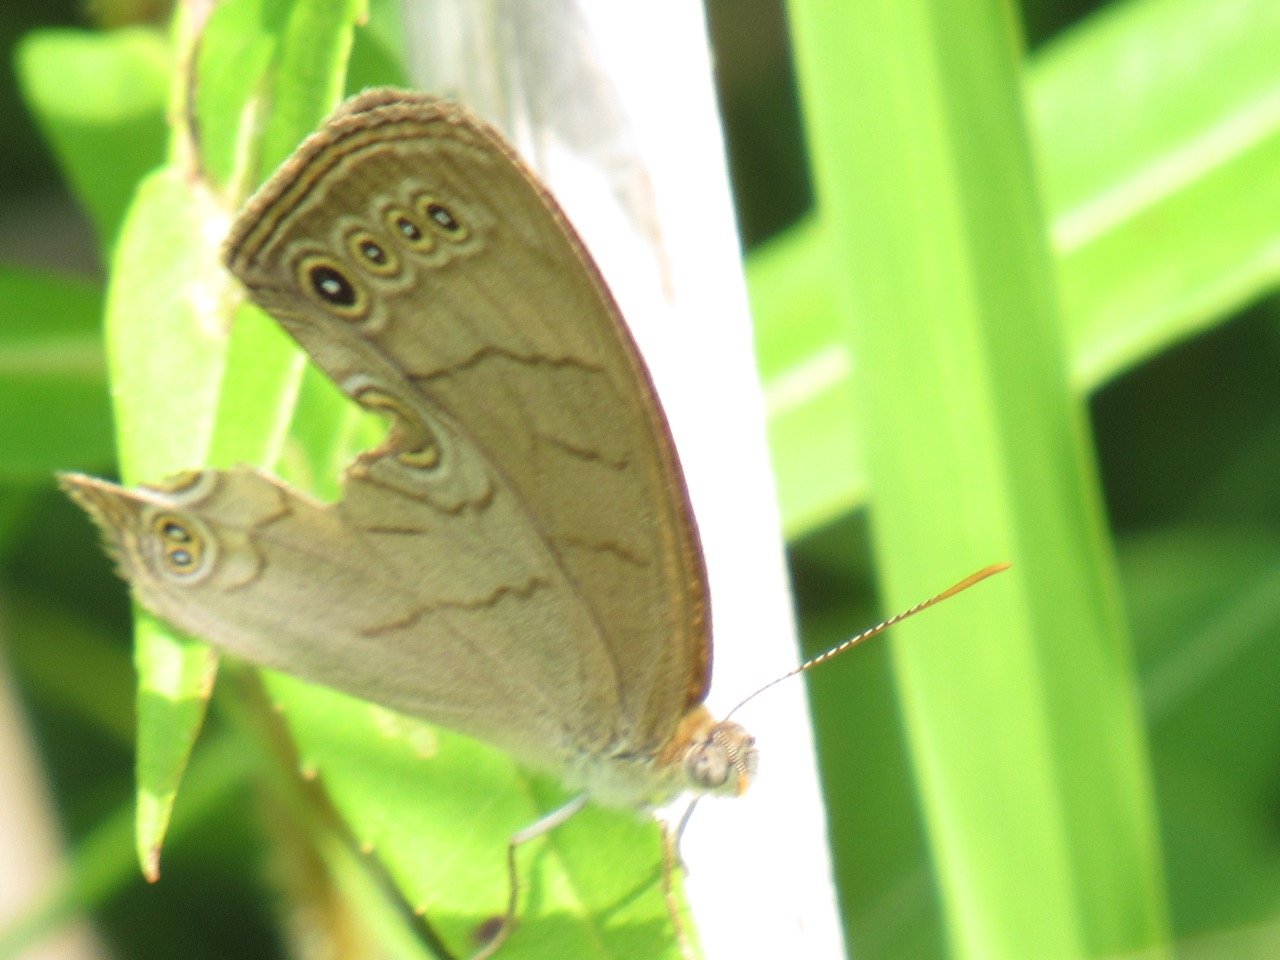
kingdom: Animalia
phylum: Arthropoda
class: Insecta
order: Lepidoptera
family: Nymphalidae
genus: Lethe
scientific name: Lethe eurydice
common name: Appalachian Eyed Brown
